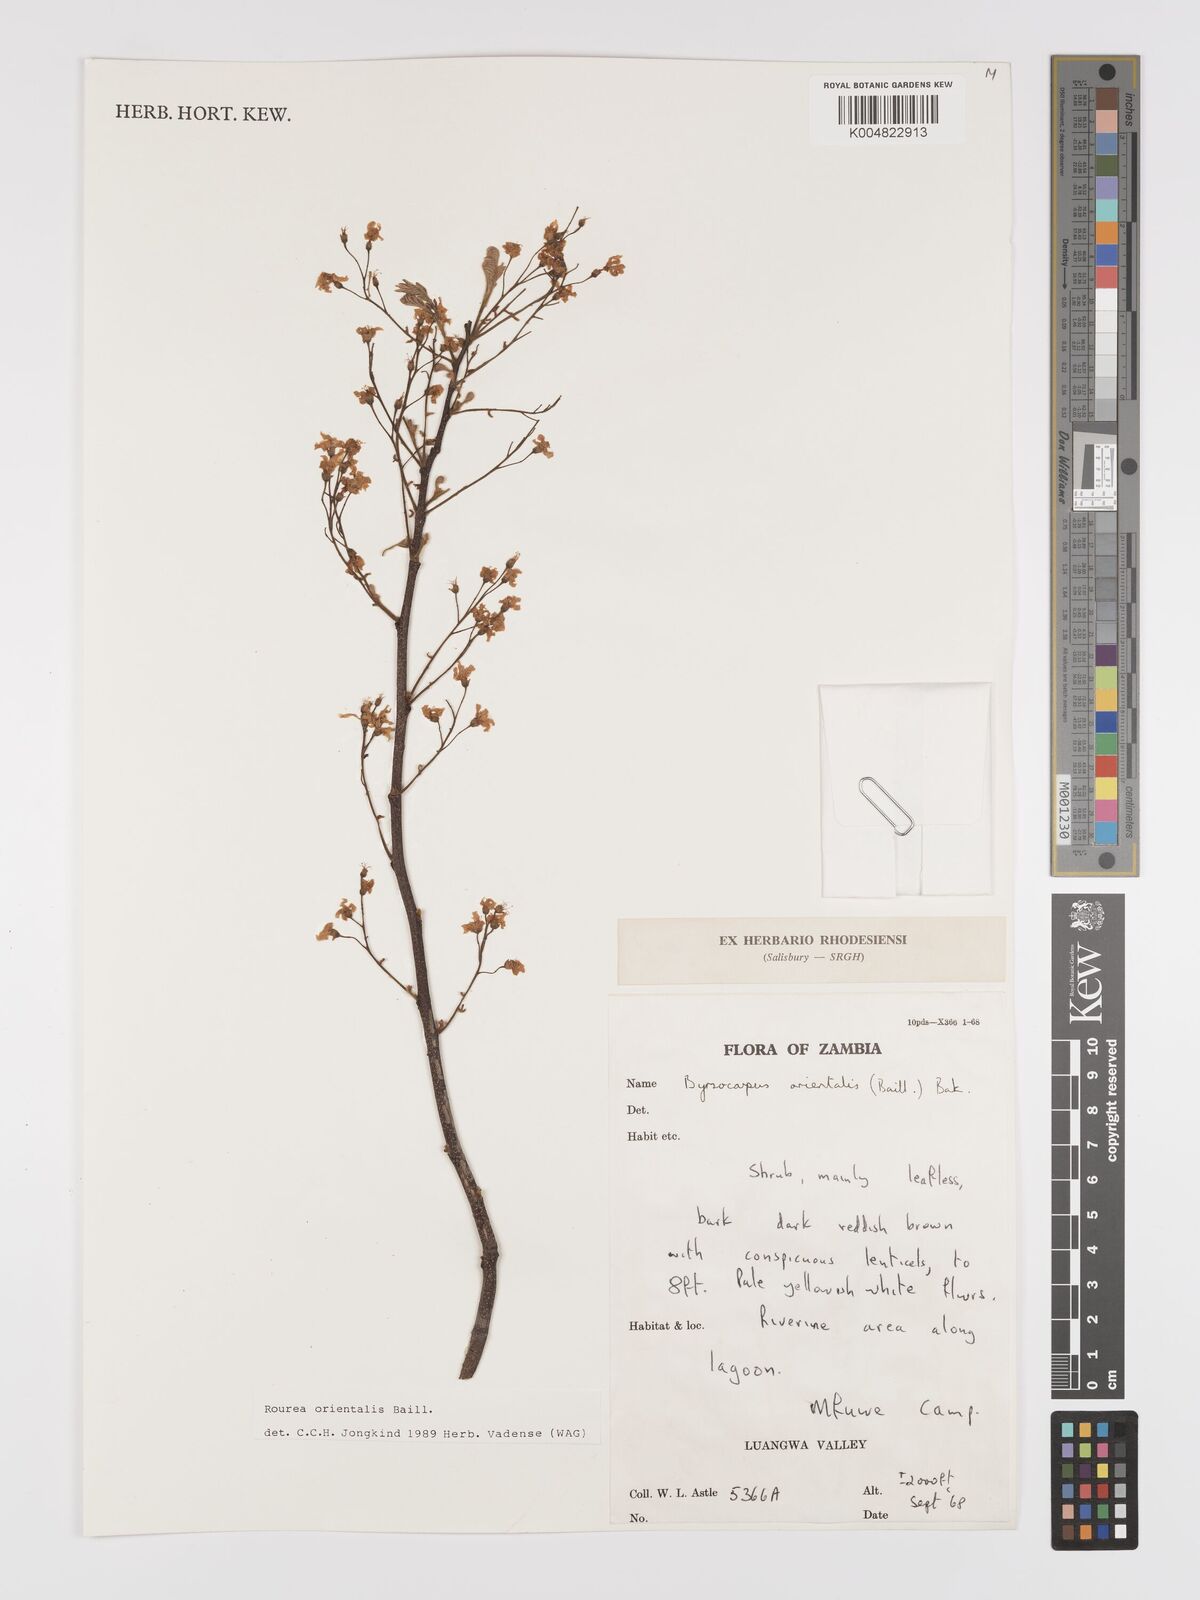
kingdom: Plantae
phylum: Tracheophyta
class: Magnoliopsida
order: Oxalidales
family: Connaraceae
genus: Rourea
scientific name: Rourea orientalis
